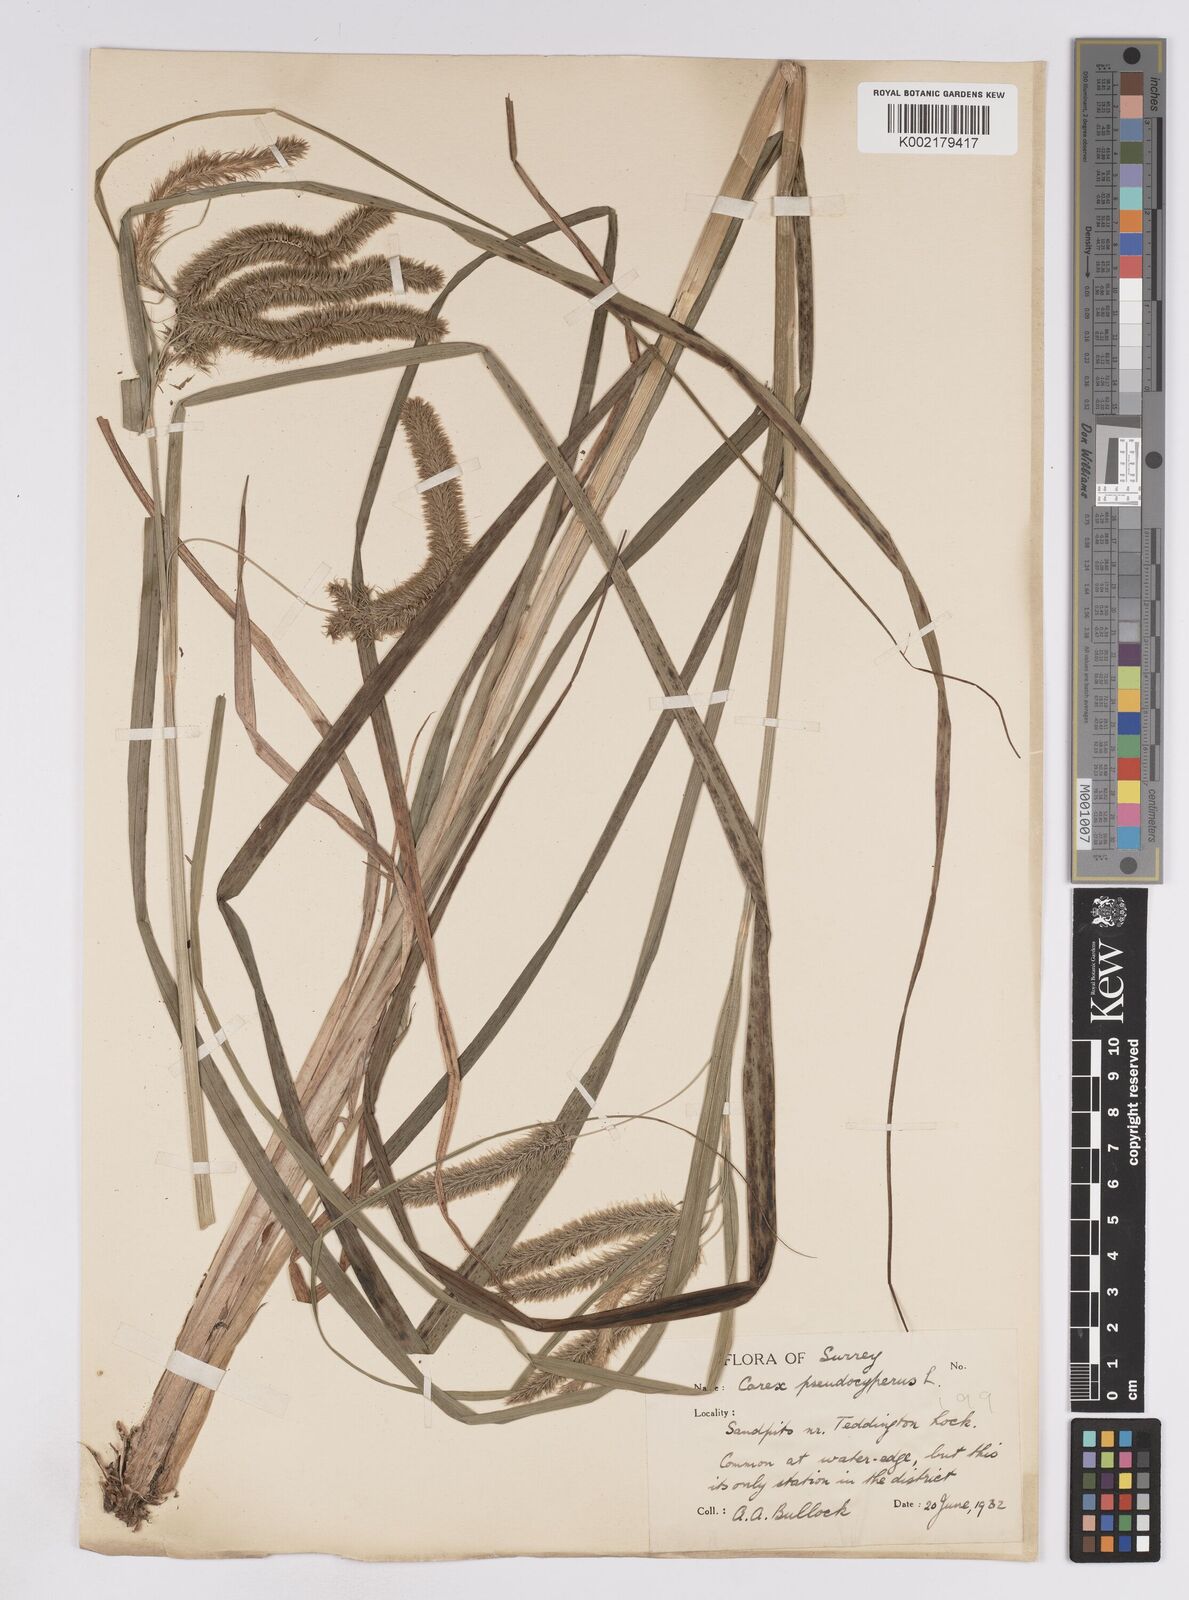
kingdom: Plantae
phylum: Tracheophyta
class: Liliopsida
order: Poales
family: Cyperaceae
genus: Carex
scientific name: Carex pseudocyperus
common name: Cyperus sedge
